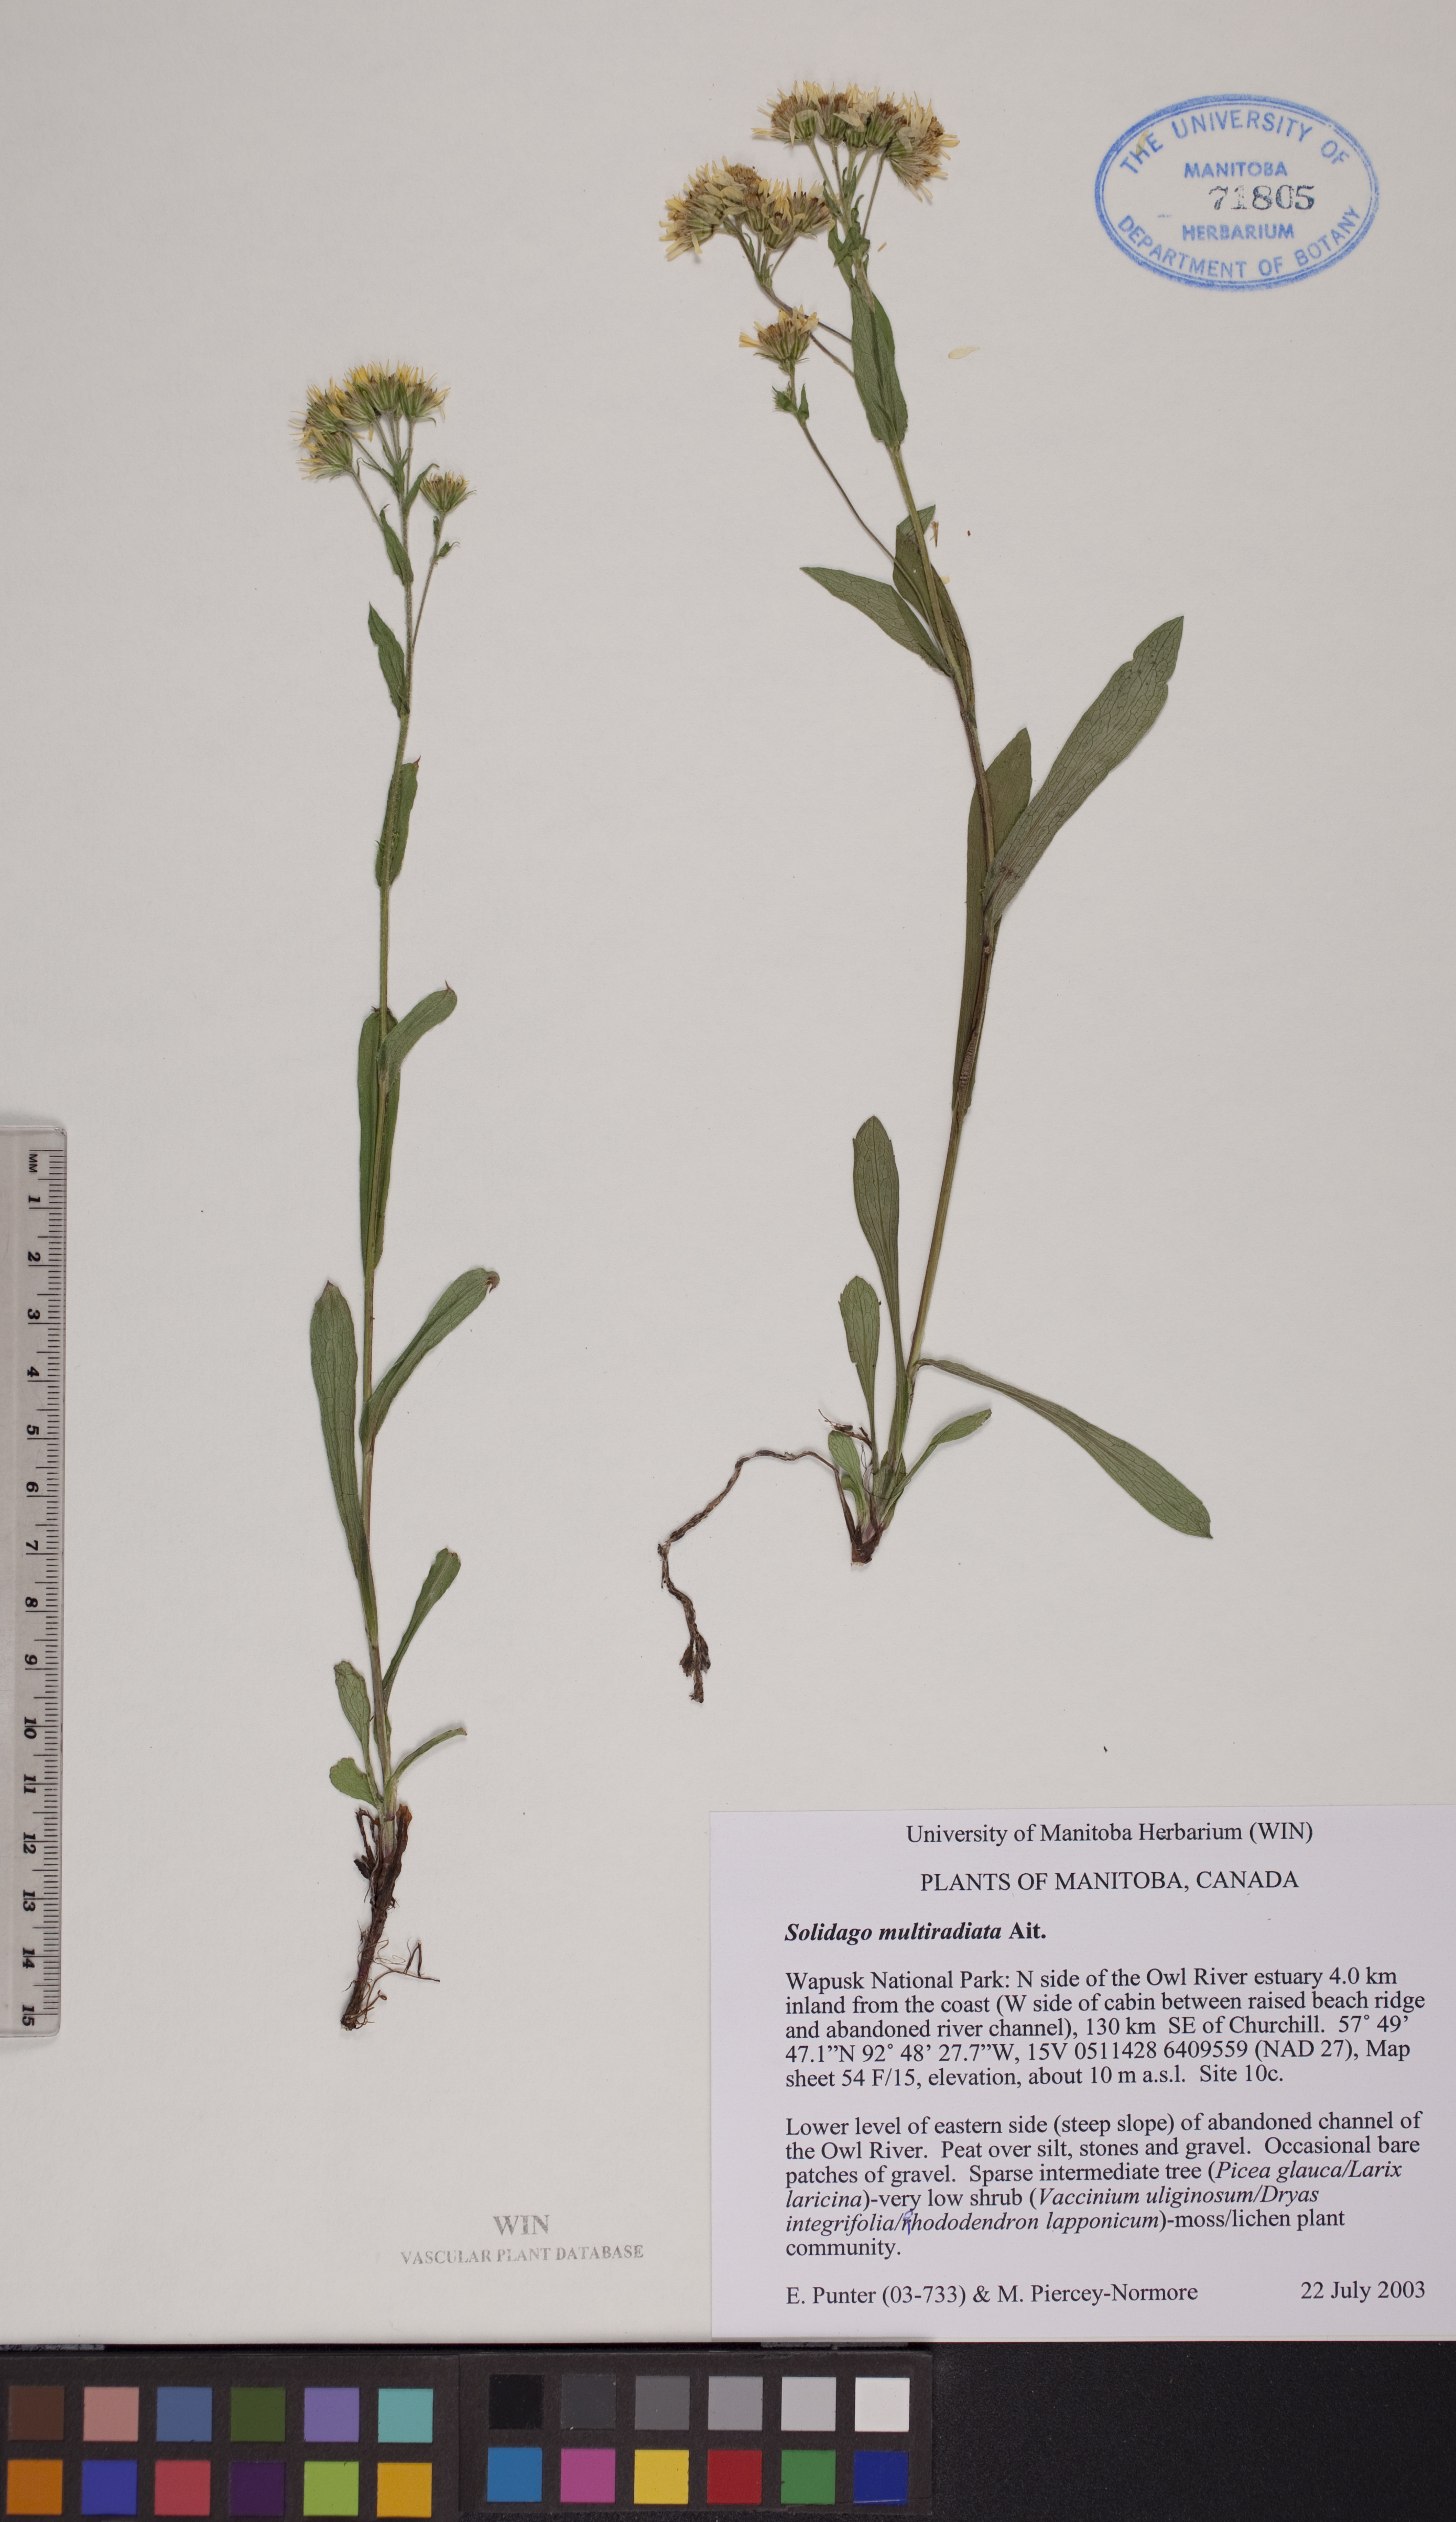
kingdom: Plantae
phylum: Tracheophyta
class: Magnoliopsida
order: Asterales
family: Asteraceae
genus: Solidago
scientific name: Solidago multiradiata
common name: Northern goldenrod
